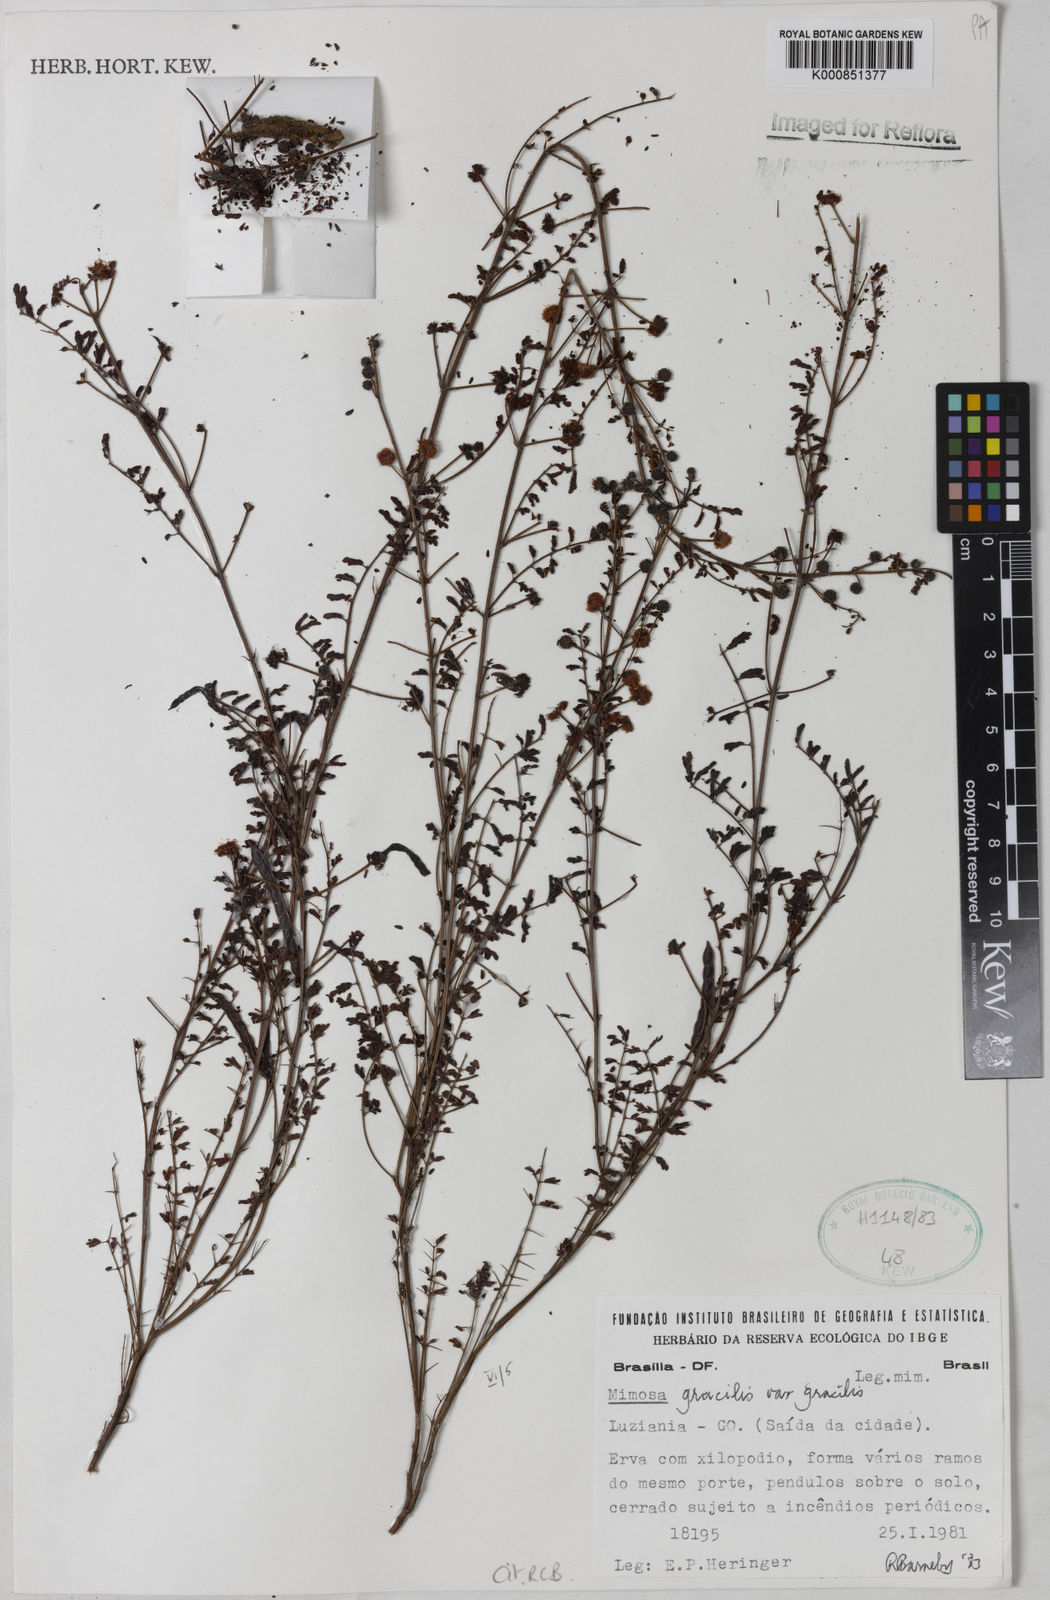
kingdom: Plantae
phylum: Tracheophyta
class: Magnoliopsida
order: Fabales
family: Fabaceae
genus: Mimosa
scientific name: Mimosa gracilis
